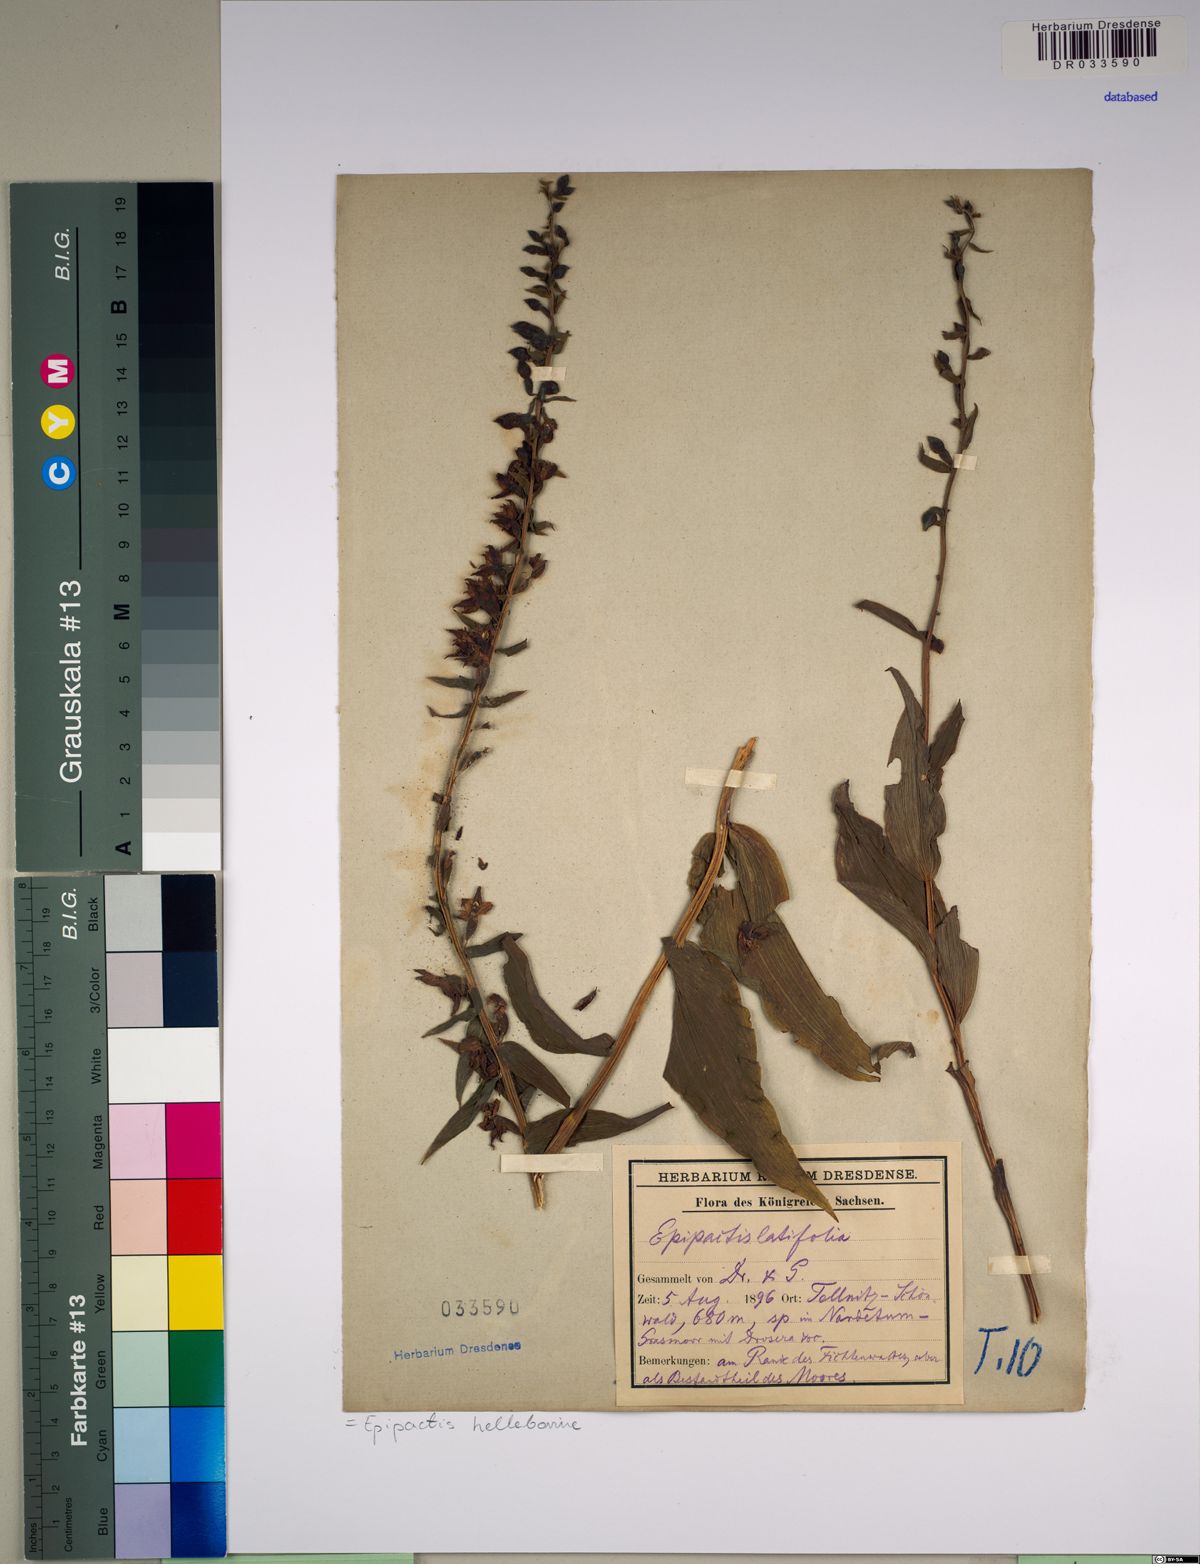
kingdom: Plantae
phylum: Tracheophyta
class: Liliopsida
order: Asparagales
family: Orchidaceae
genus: Epipactis
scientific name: Epipactis helleborine
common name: Broad-leaved helleborine
